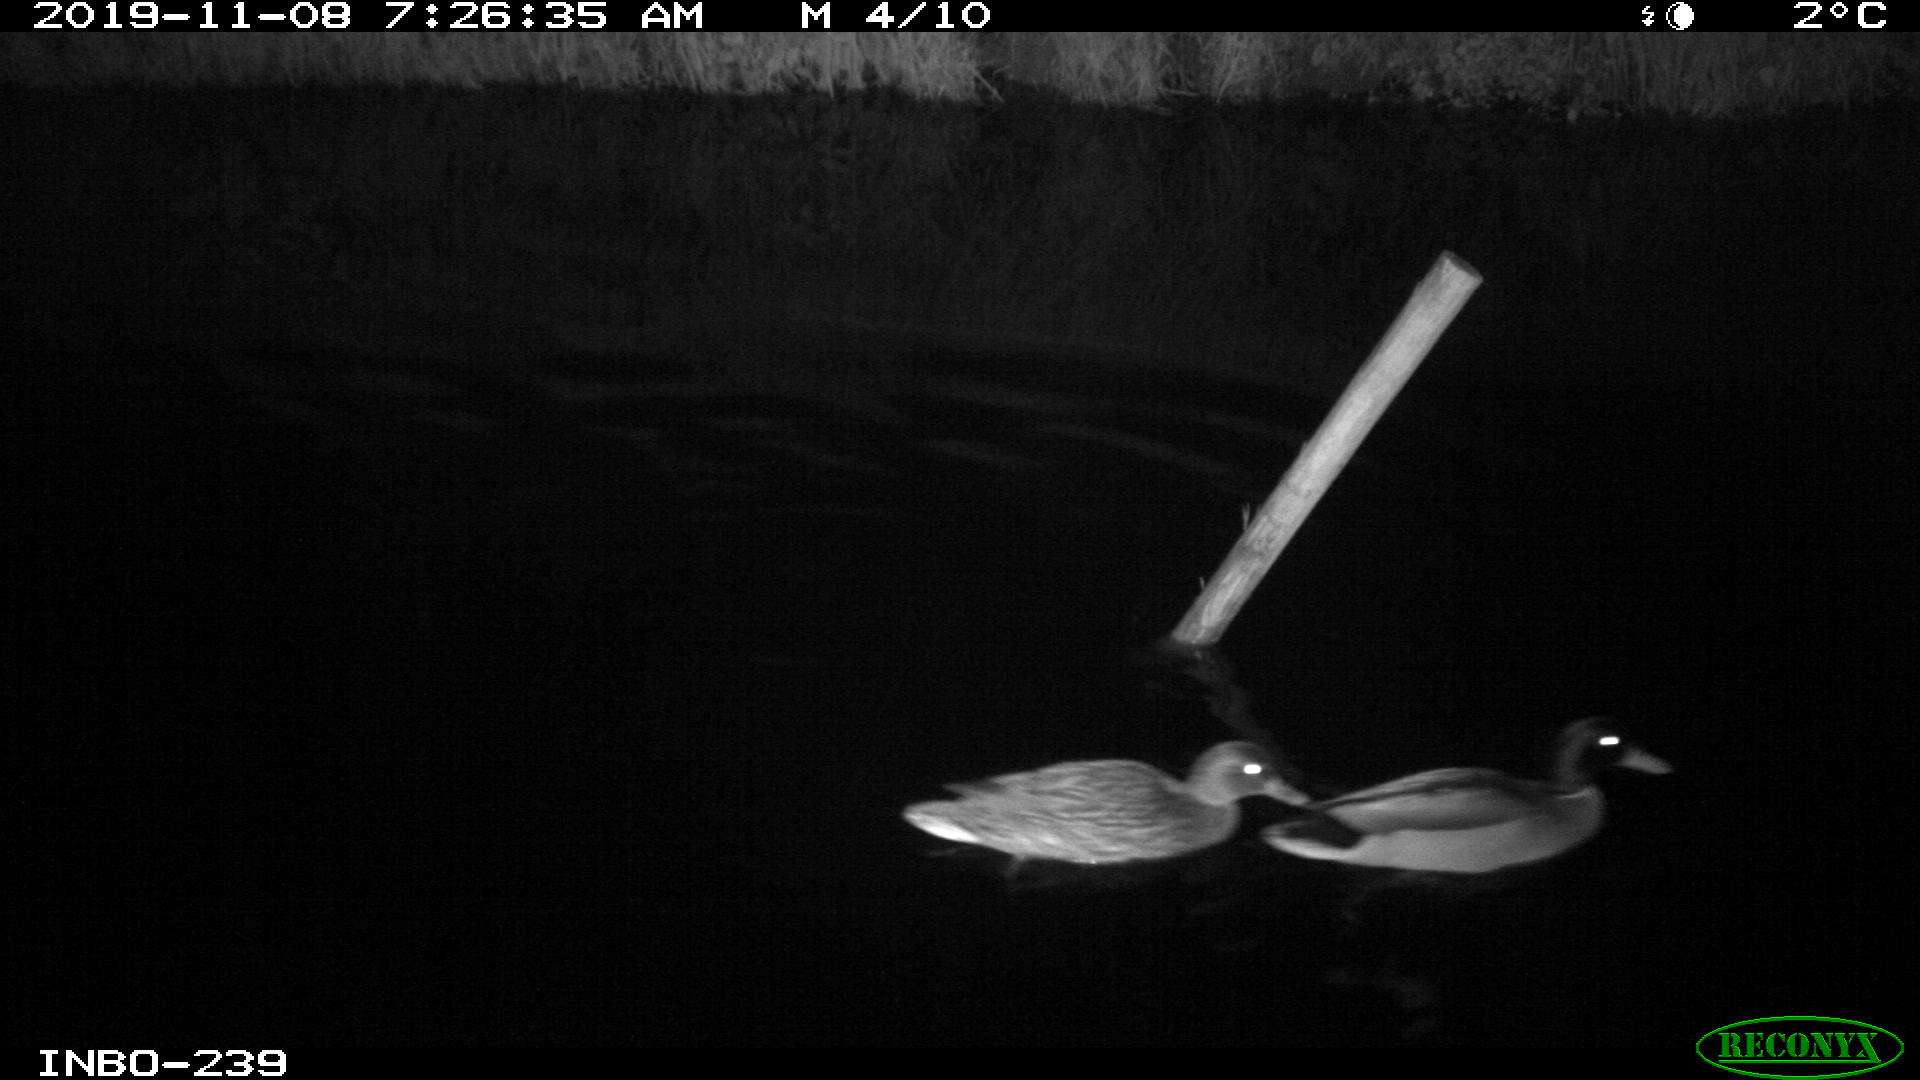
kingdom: Animalia
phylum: Chordata
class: Aves
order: Anseriformes
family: Anatidae
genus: Anas
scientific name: Anas platyrhynchos
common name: Mallard
